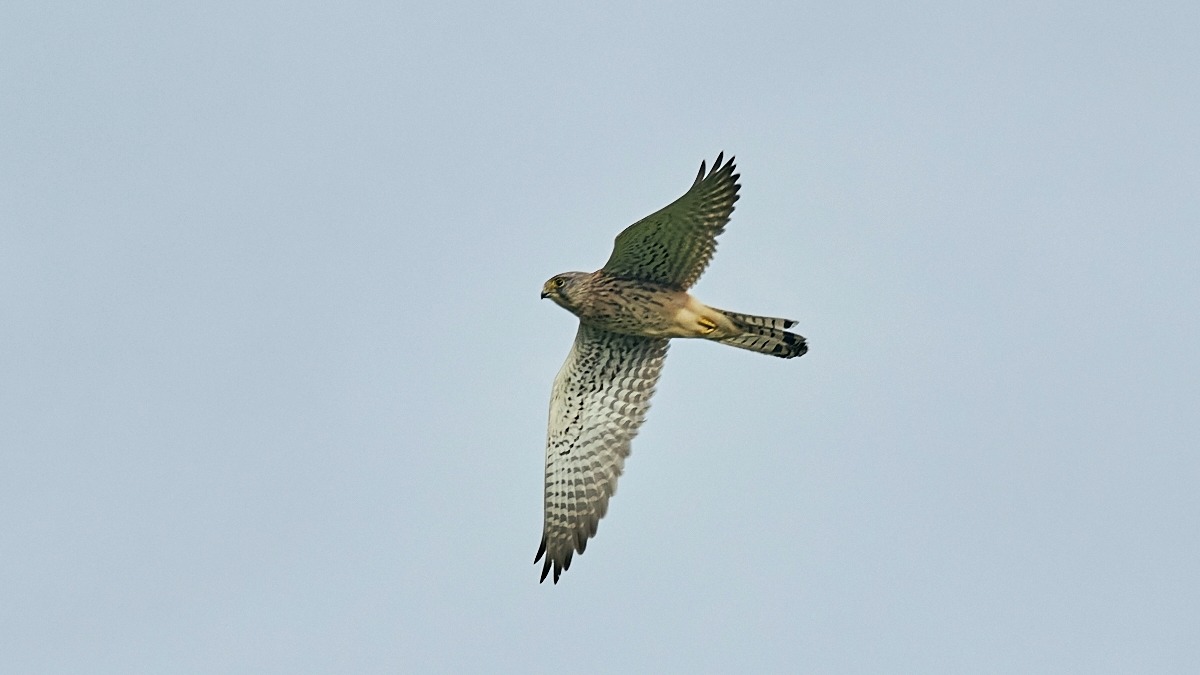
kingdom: Animalia
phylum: Chordata
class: Aves
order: Falconiformes
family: Falconidae
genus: Falco
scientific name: Falco tinnunculus
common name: Tårnfalk
